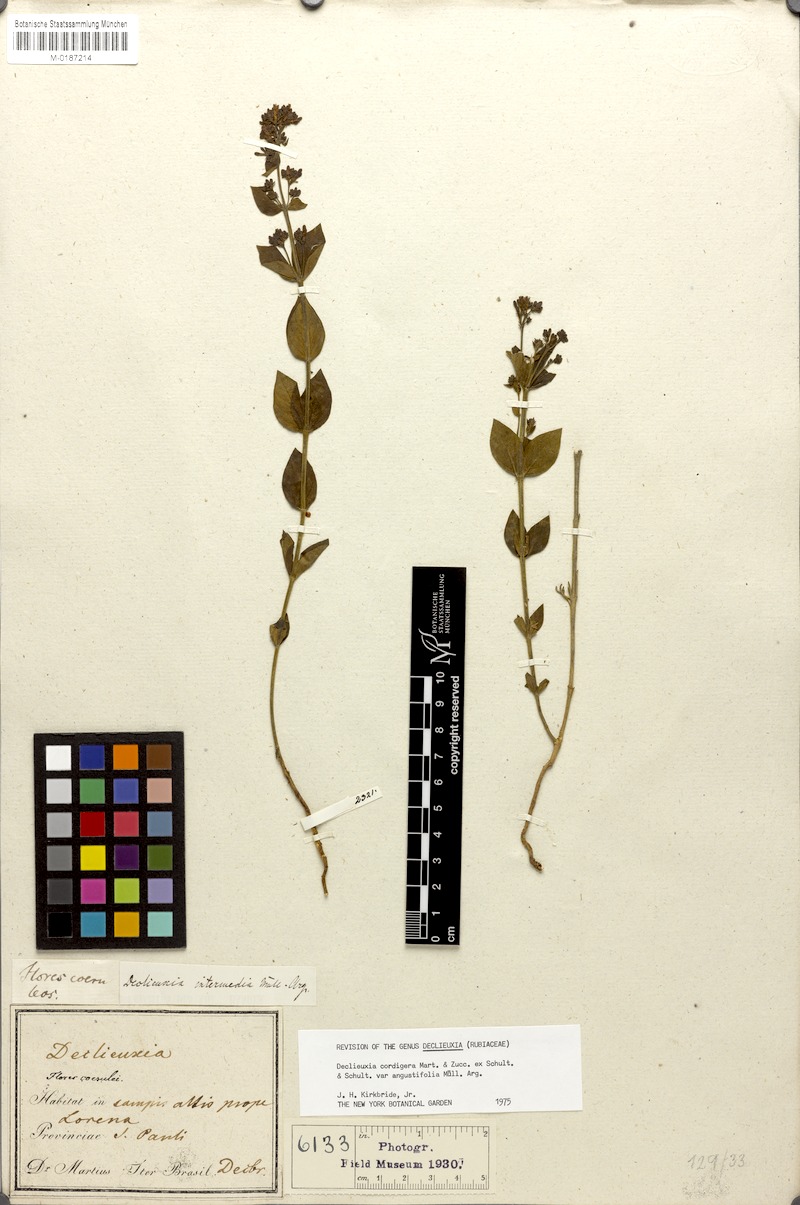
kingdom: Plantae
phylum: Tracheophyta
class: Magnoliopsida
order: Gentianales
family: Rubiaceae
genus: Declieuxia
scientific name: Declieuxia cordigera
